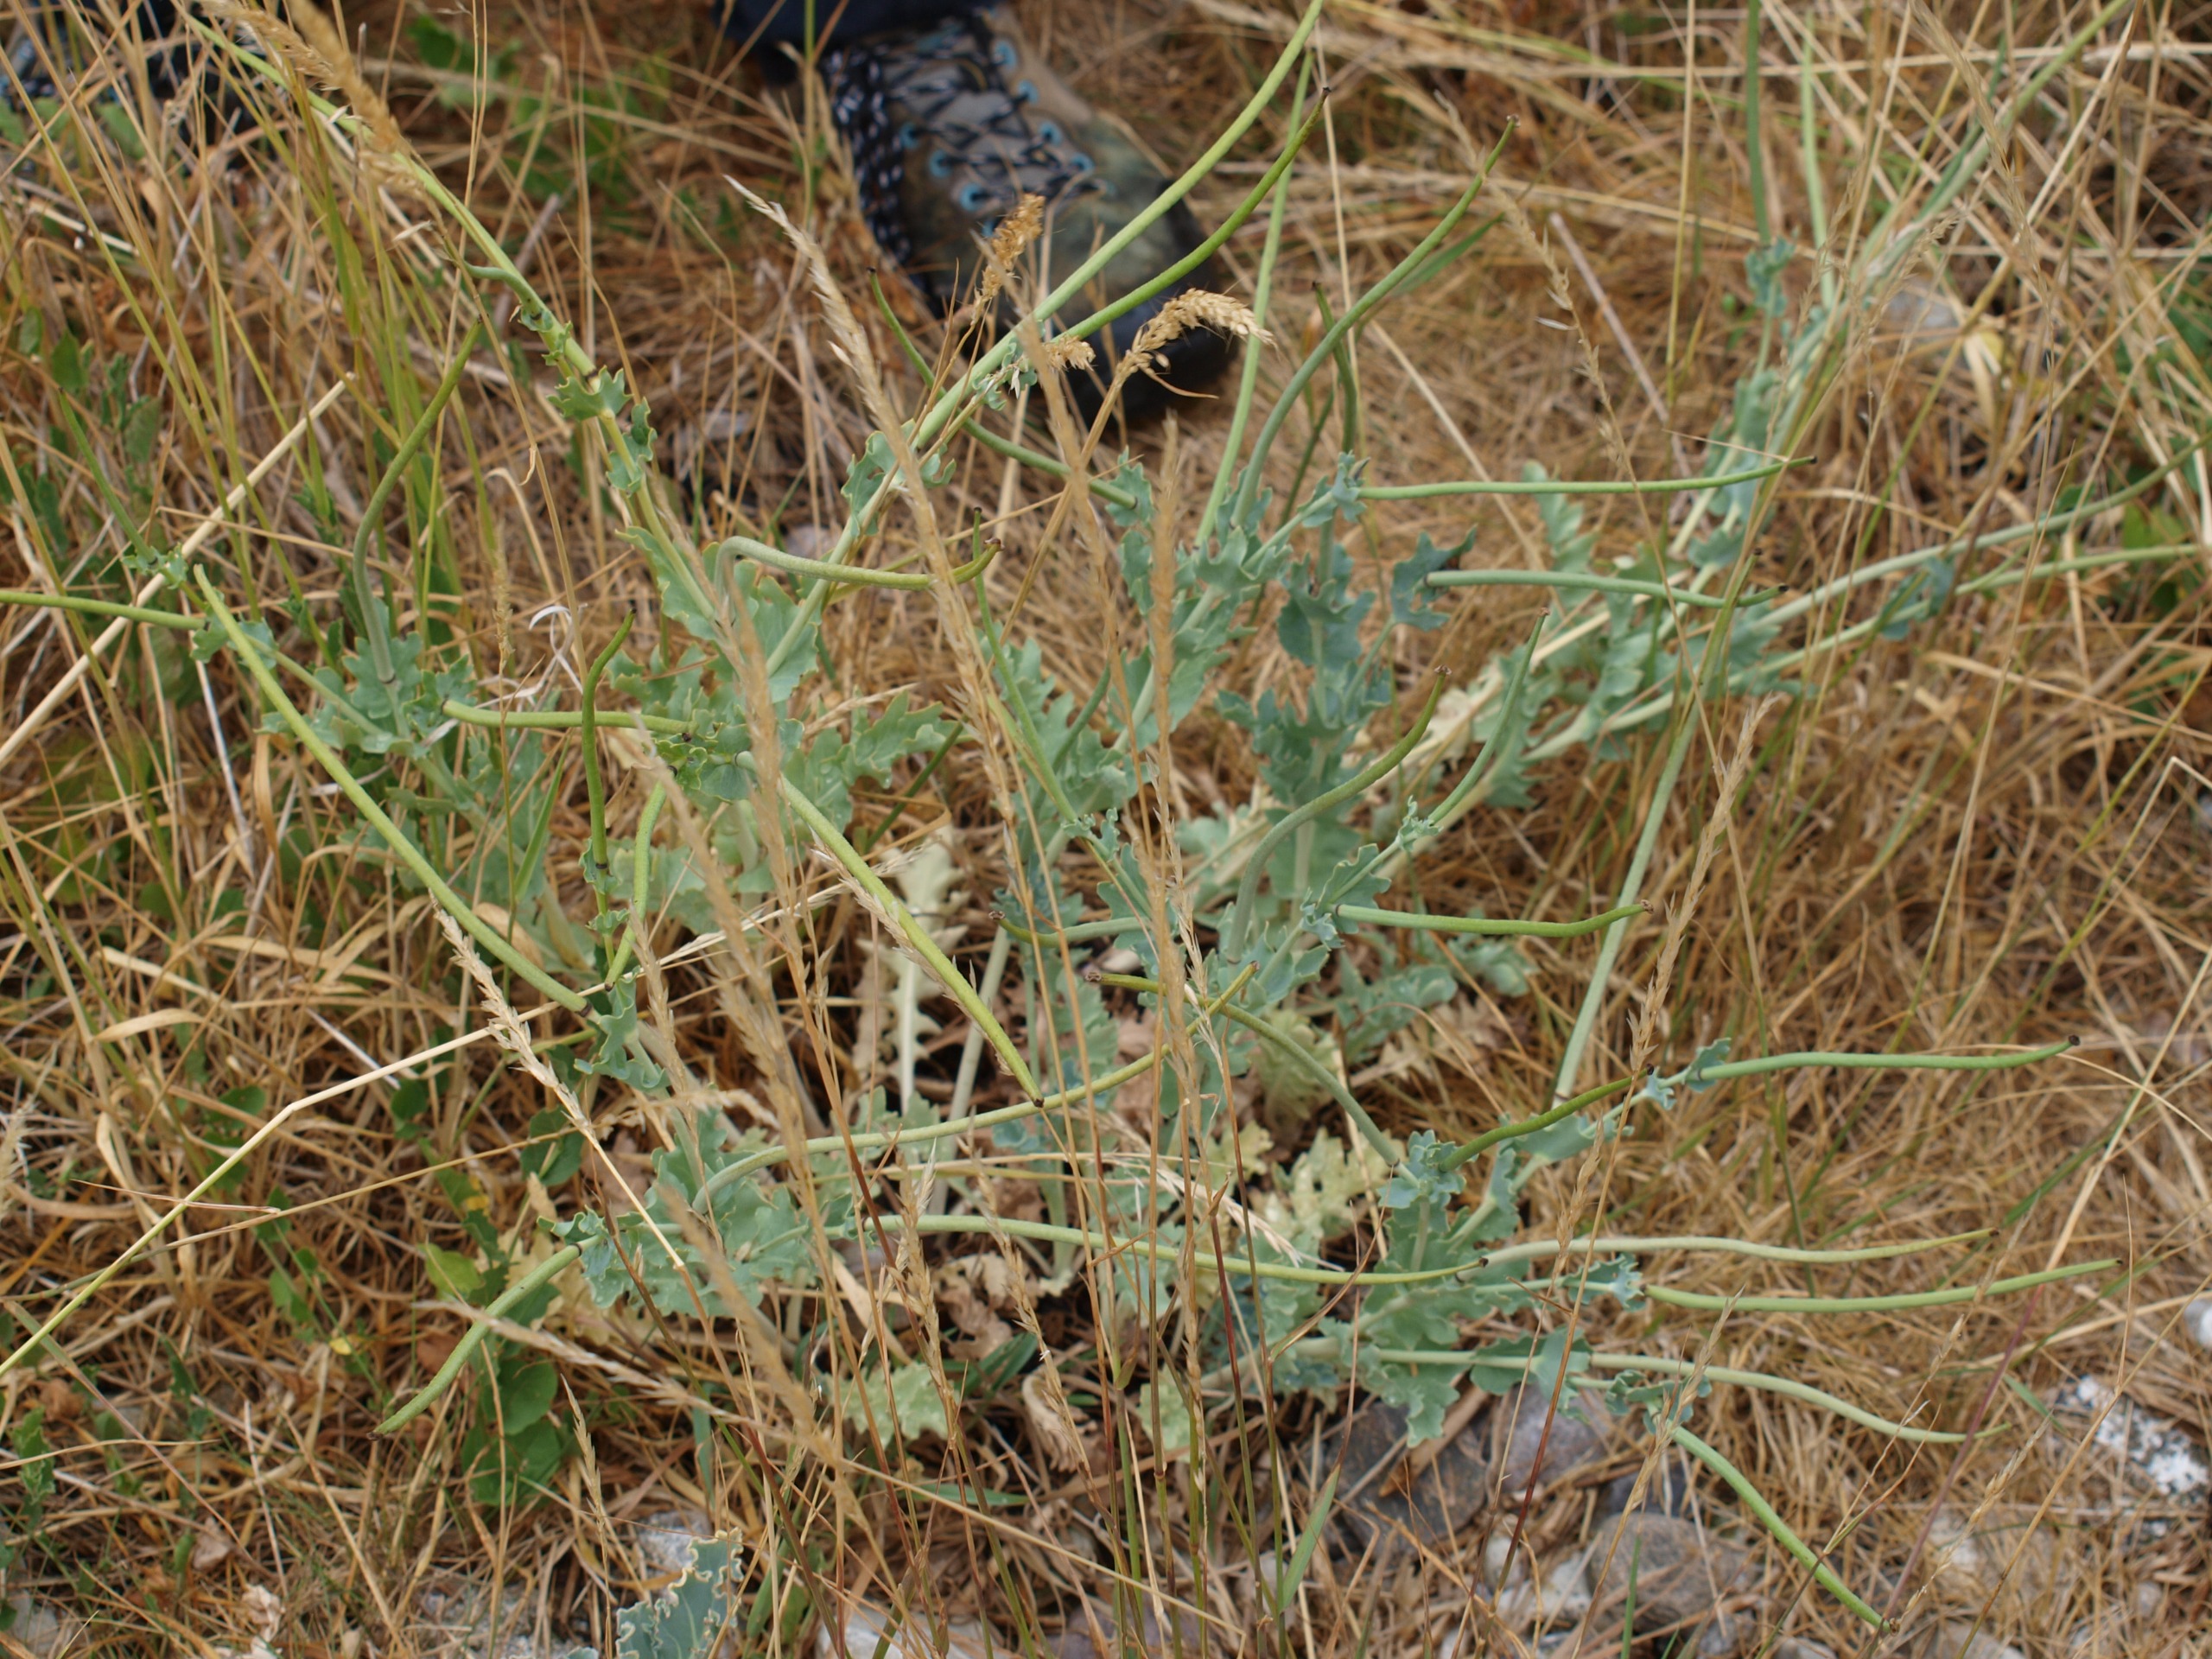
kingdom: Plantae
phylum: Tracheophyta
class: Magnoliopsida
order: Ranunculales
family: Papaveraceae
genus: Glaucium
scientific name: Glaucium flavum
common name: Hornskulpe
